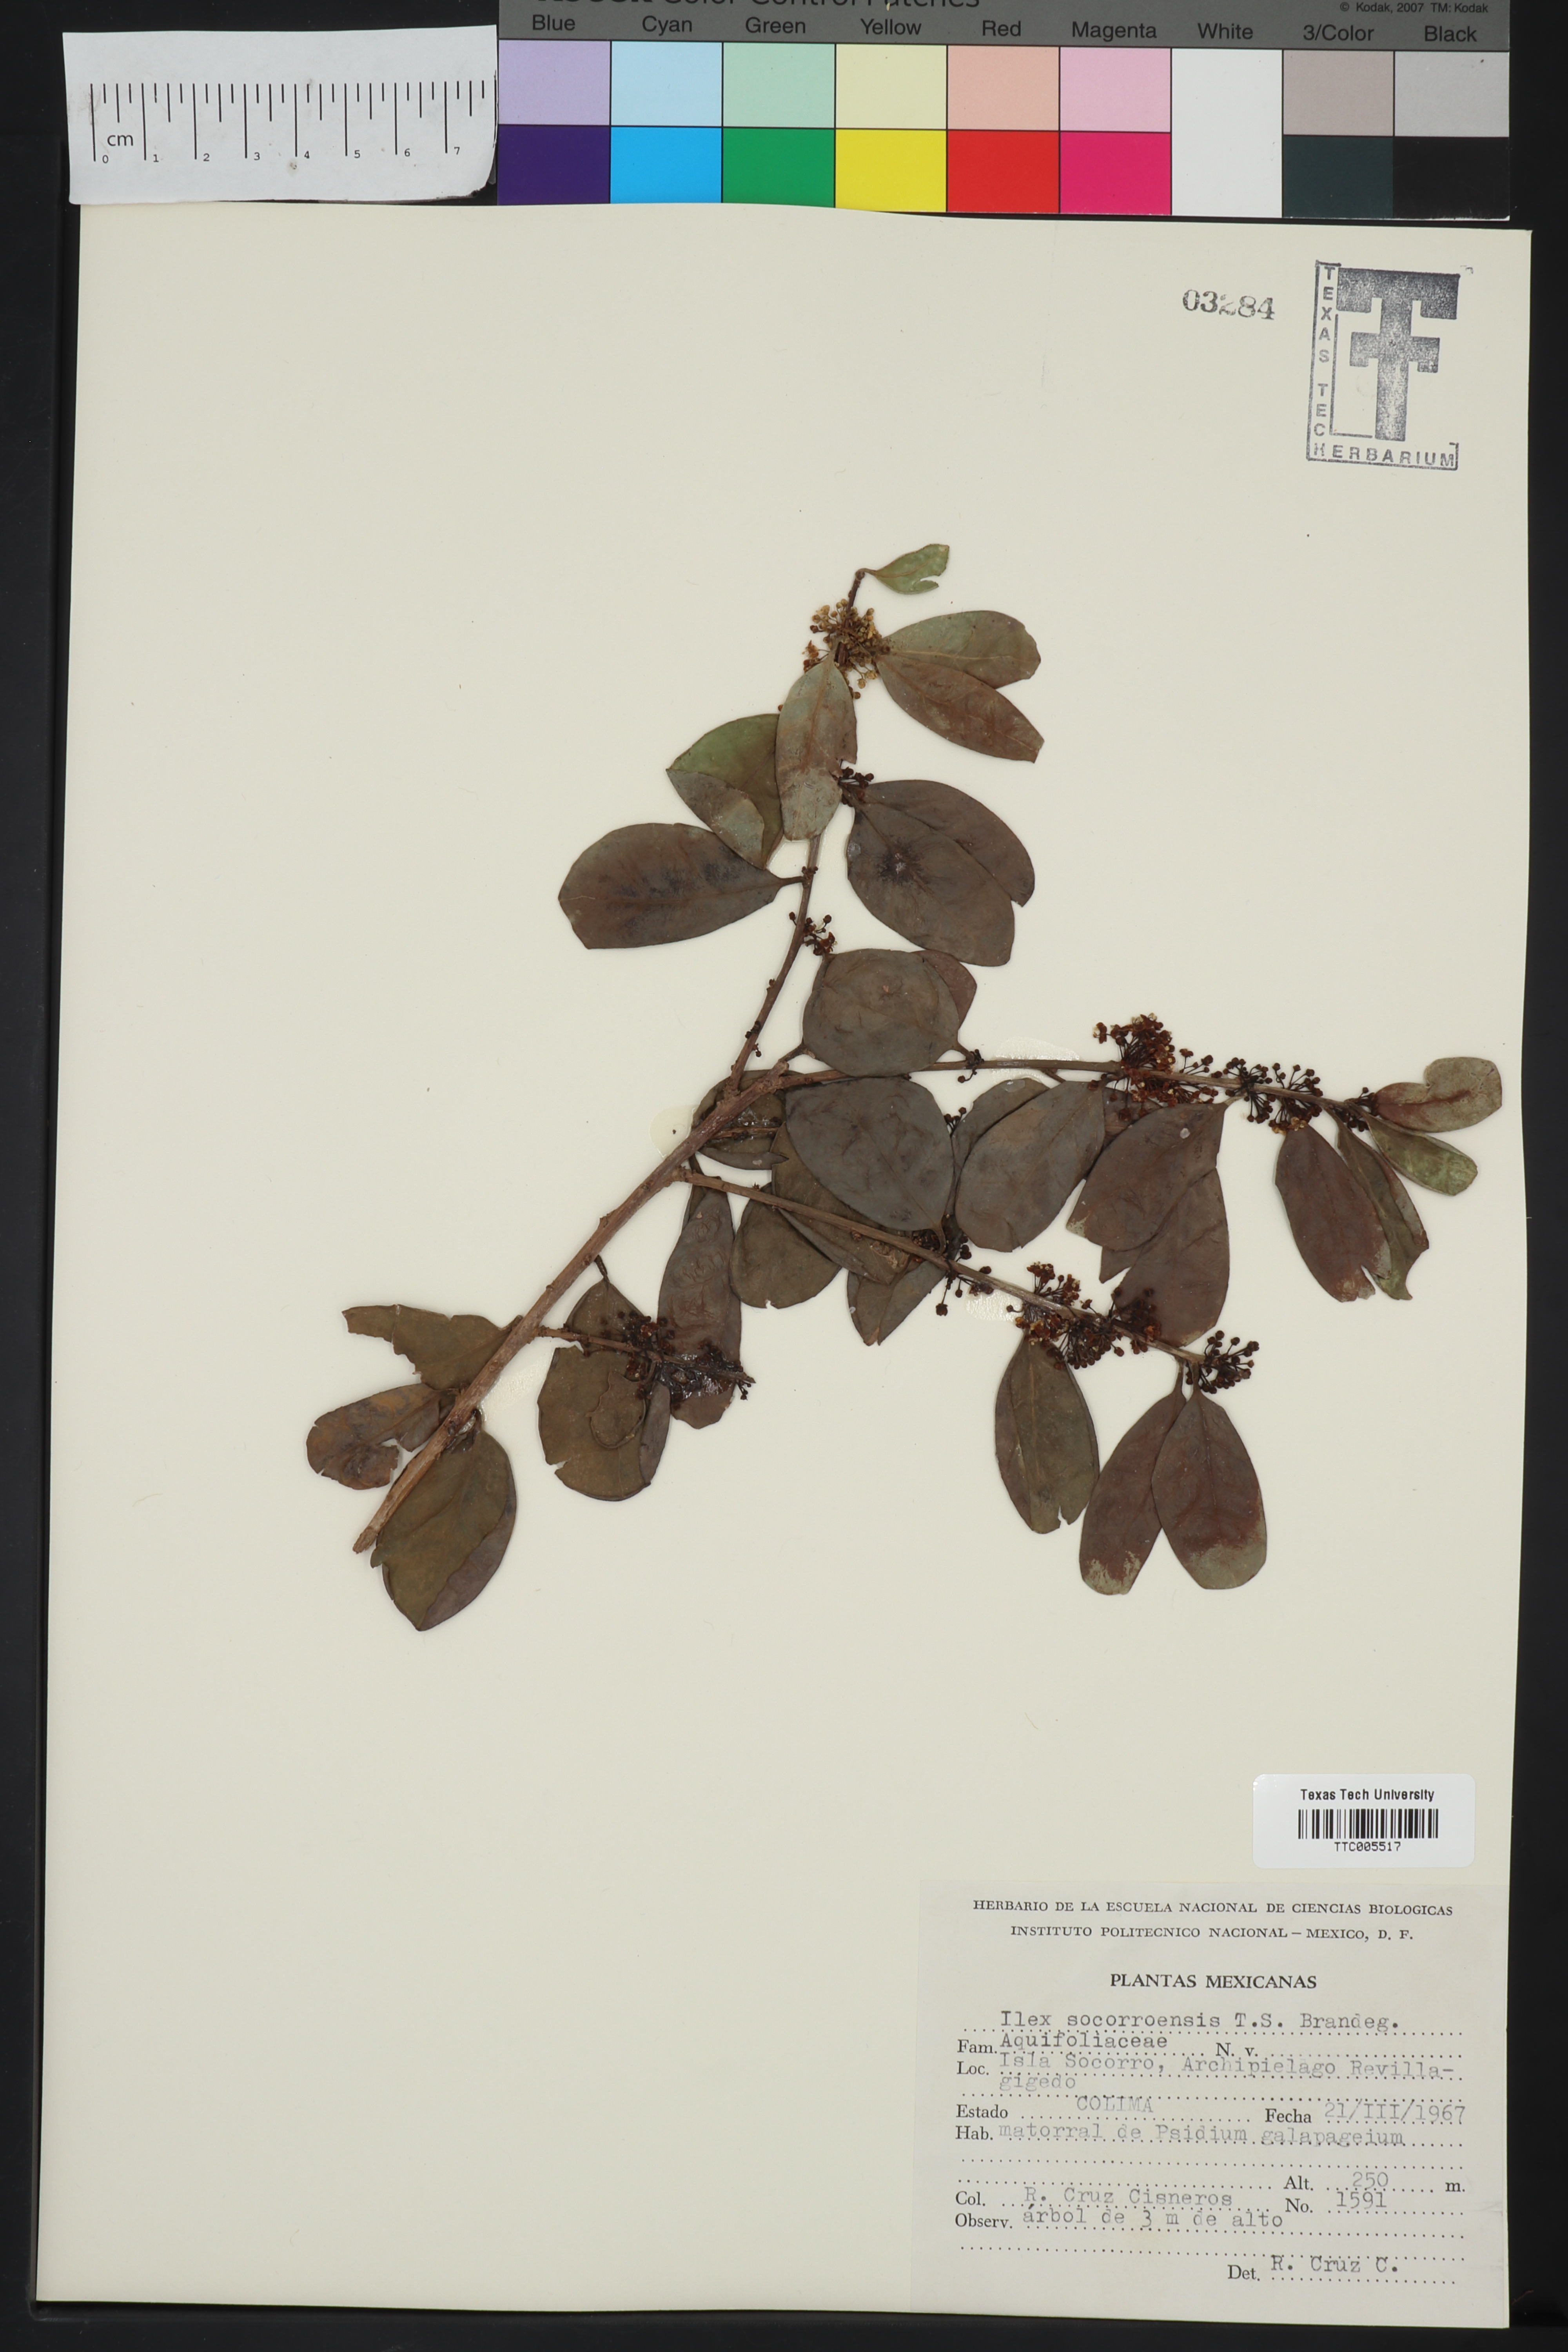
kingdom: Plantae
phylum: Tracheophyta
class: Magnoliopsida
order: Aquifoliales
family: Aquifoliaceae
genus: Ilex
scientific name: Ilex socorroensis
